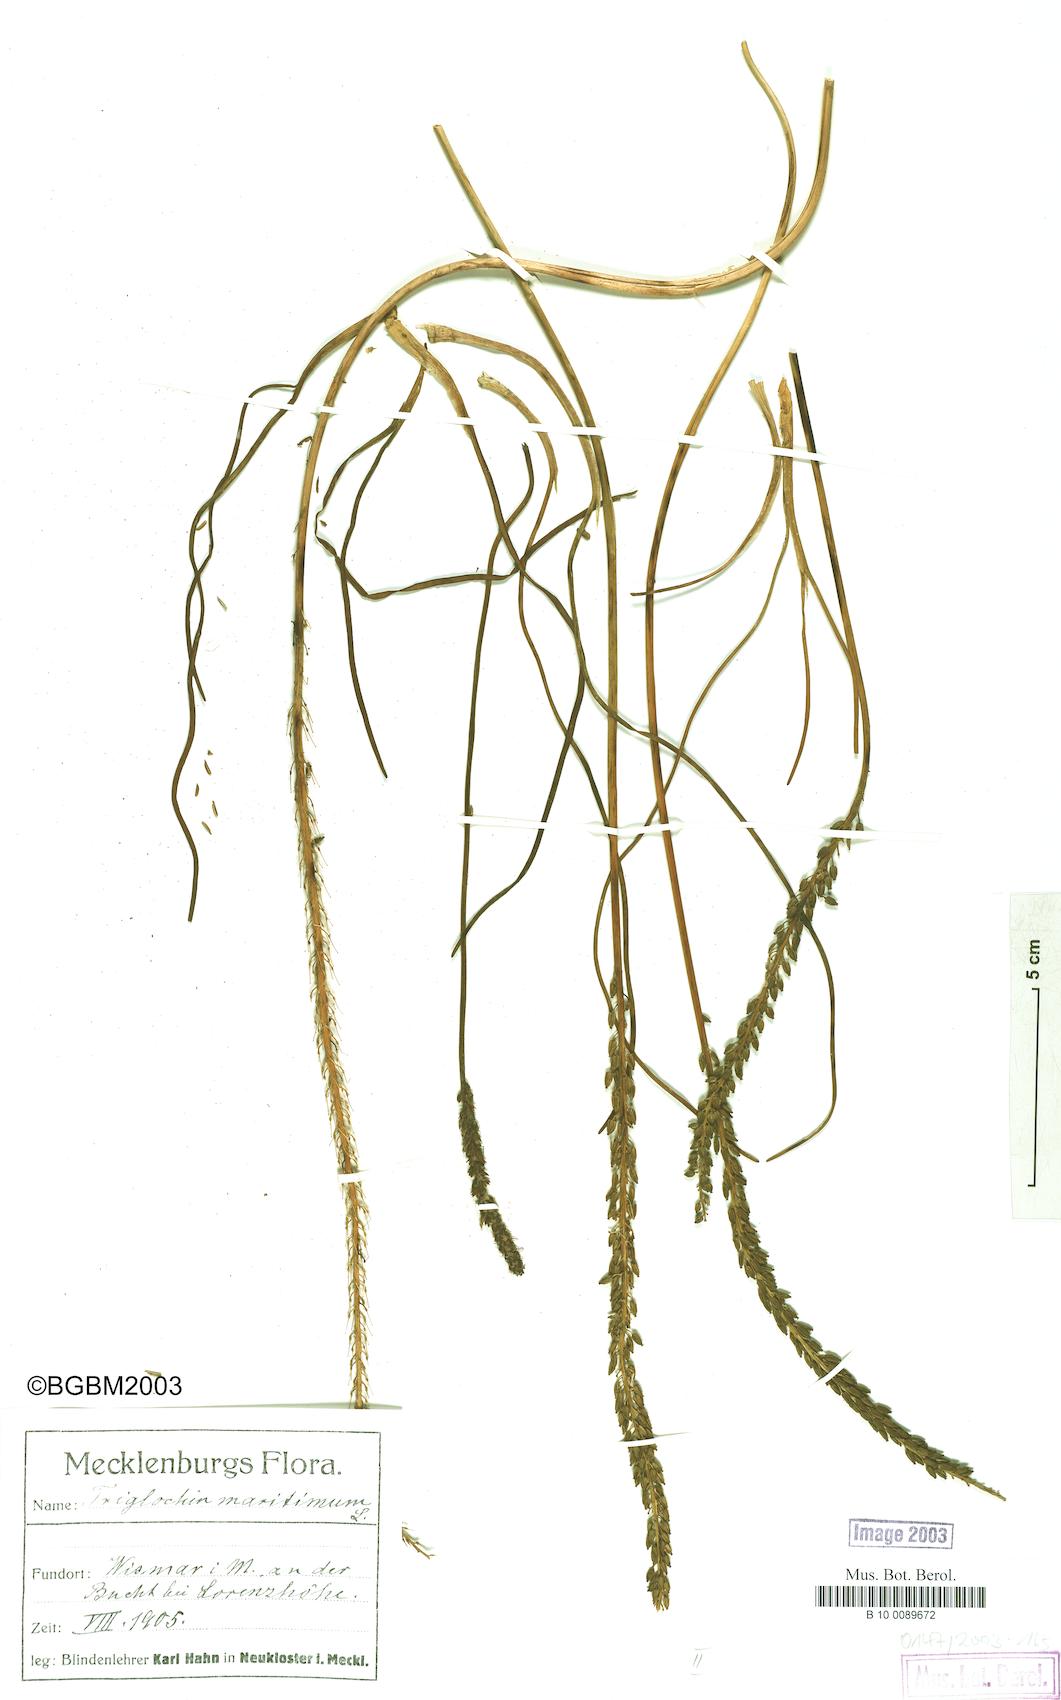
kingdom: Plantae
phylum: Tracheophyta
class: Liliopsida
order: Alismatales
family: Juncaginaceae
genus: Triglochin
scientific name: Triglochin maritima
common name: Sea arrowgrass
